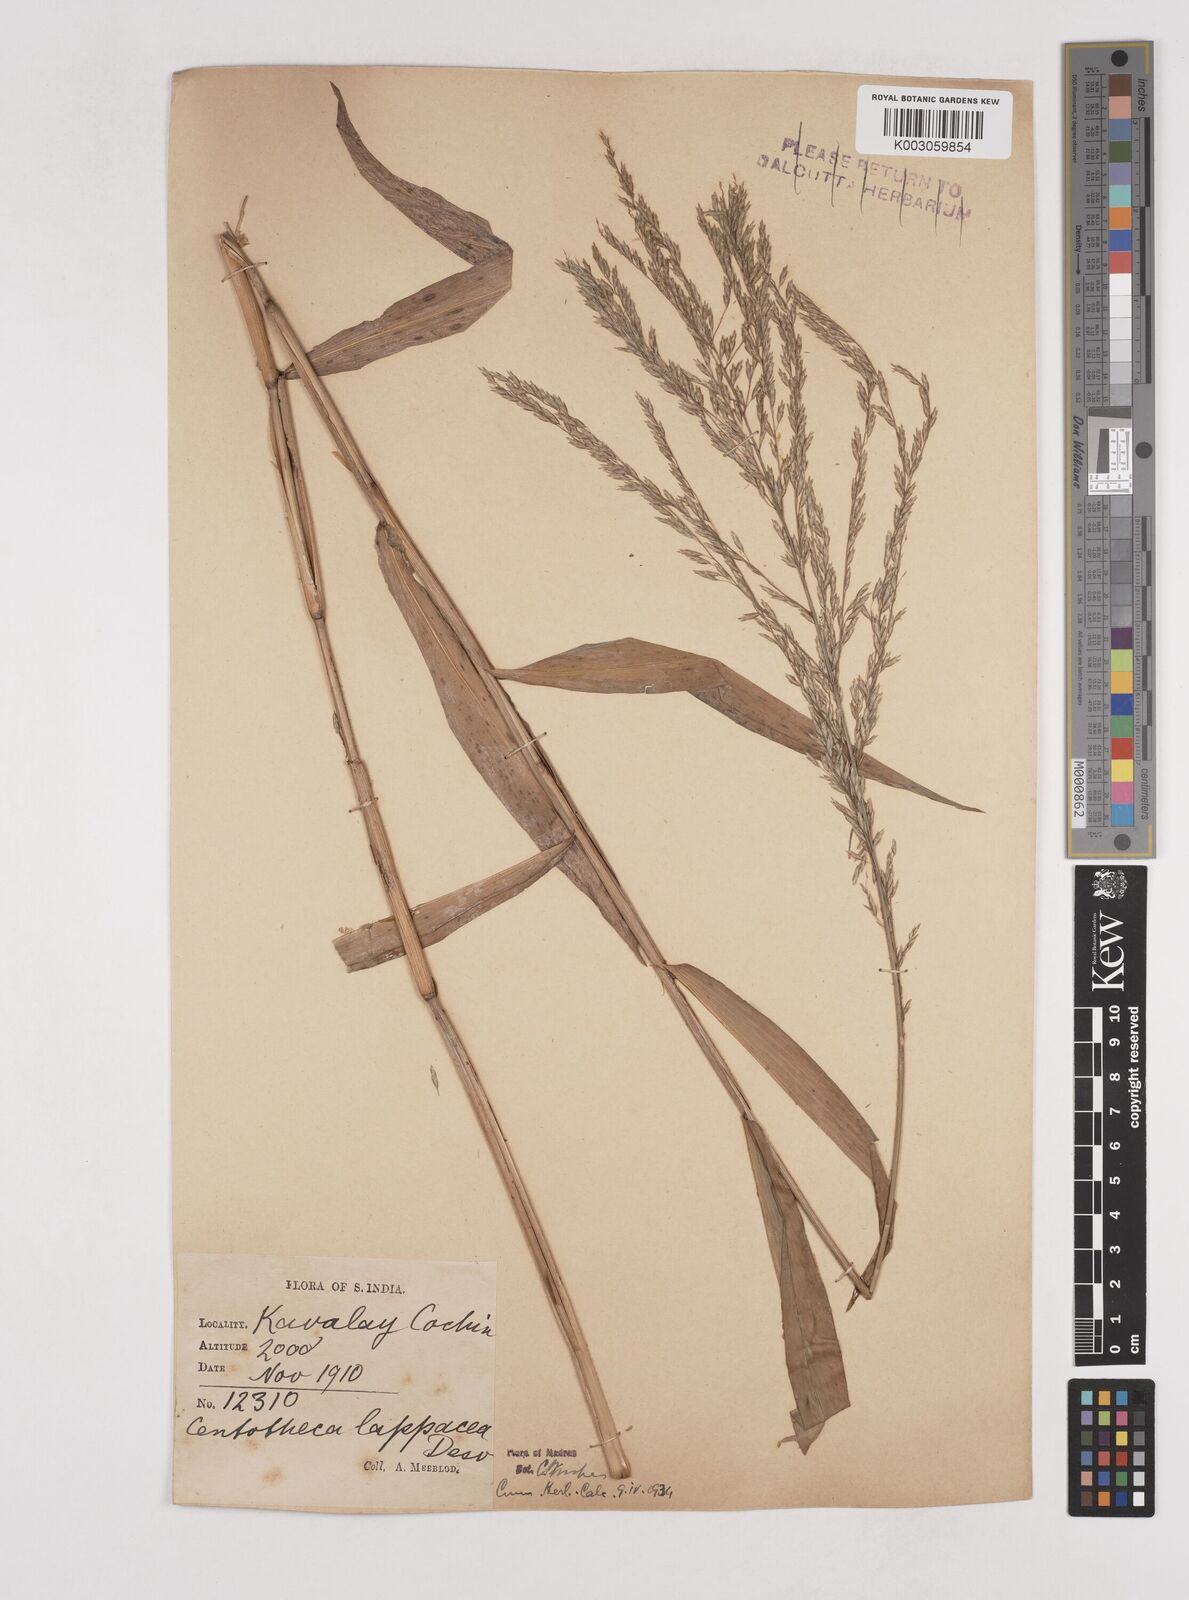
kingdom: Plantae
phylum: Tracheophyta
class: Liliopsida
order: Poales
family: Poaceae
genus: Centotheca
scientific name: Centotheca lappacea
